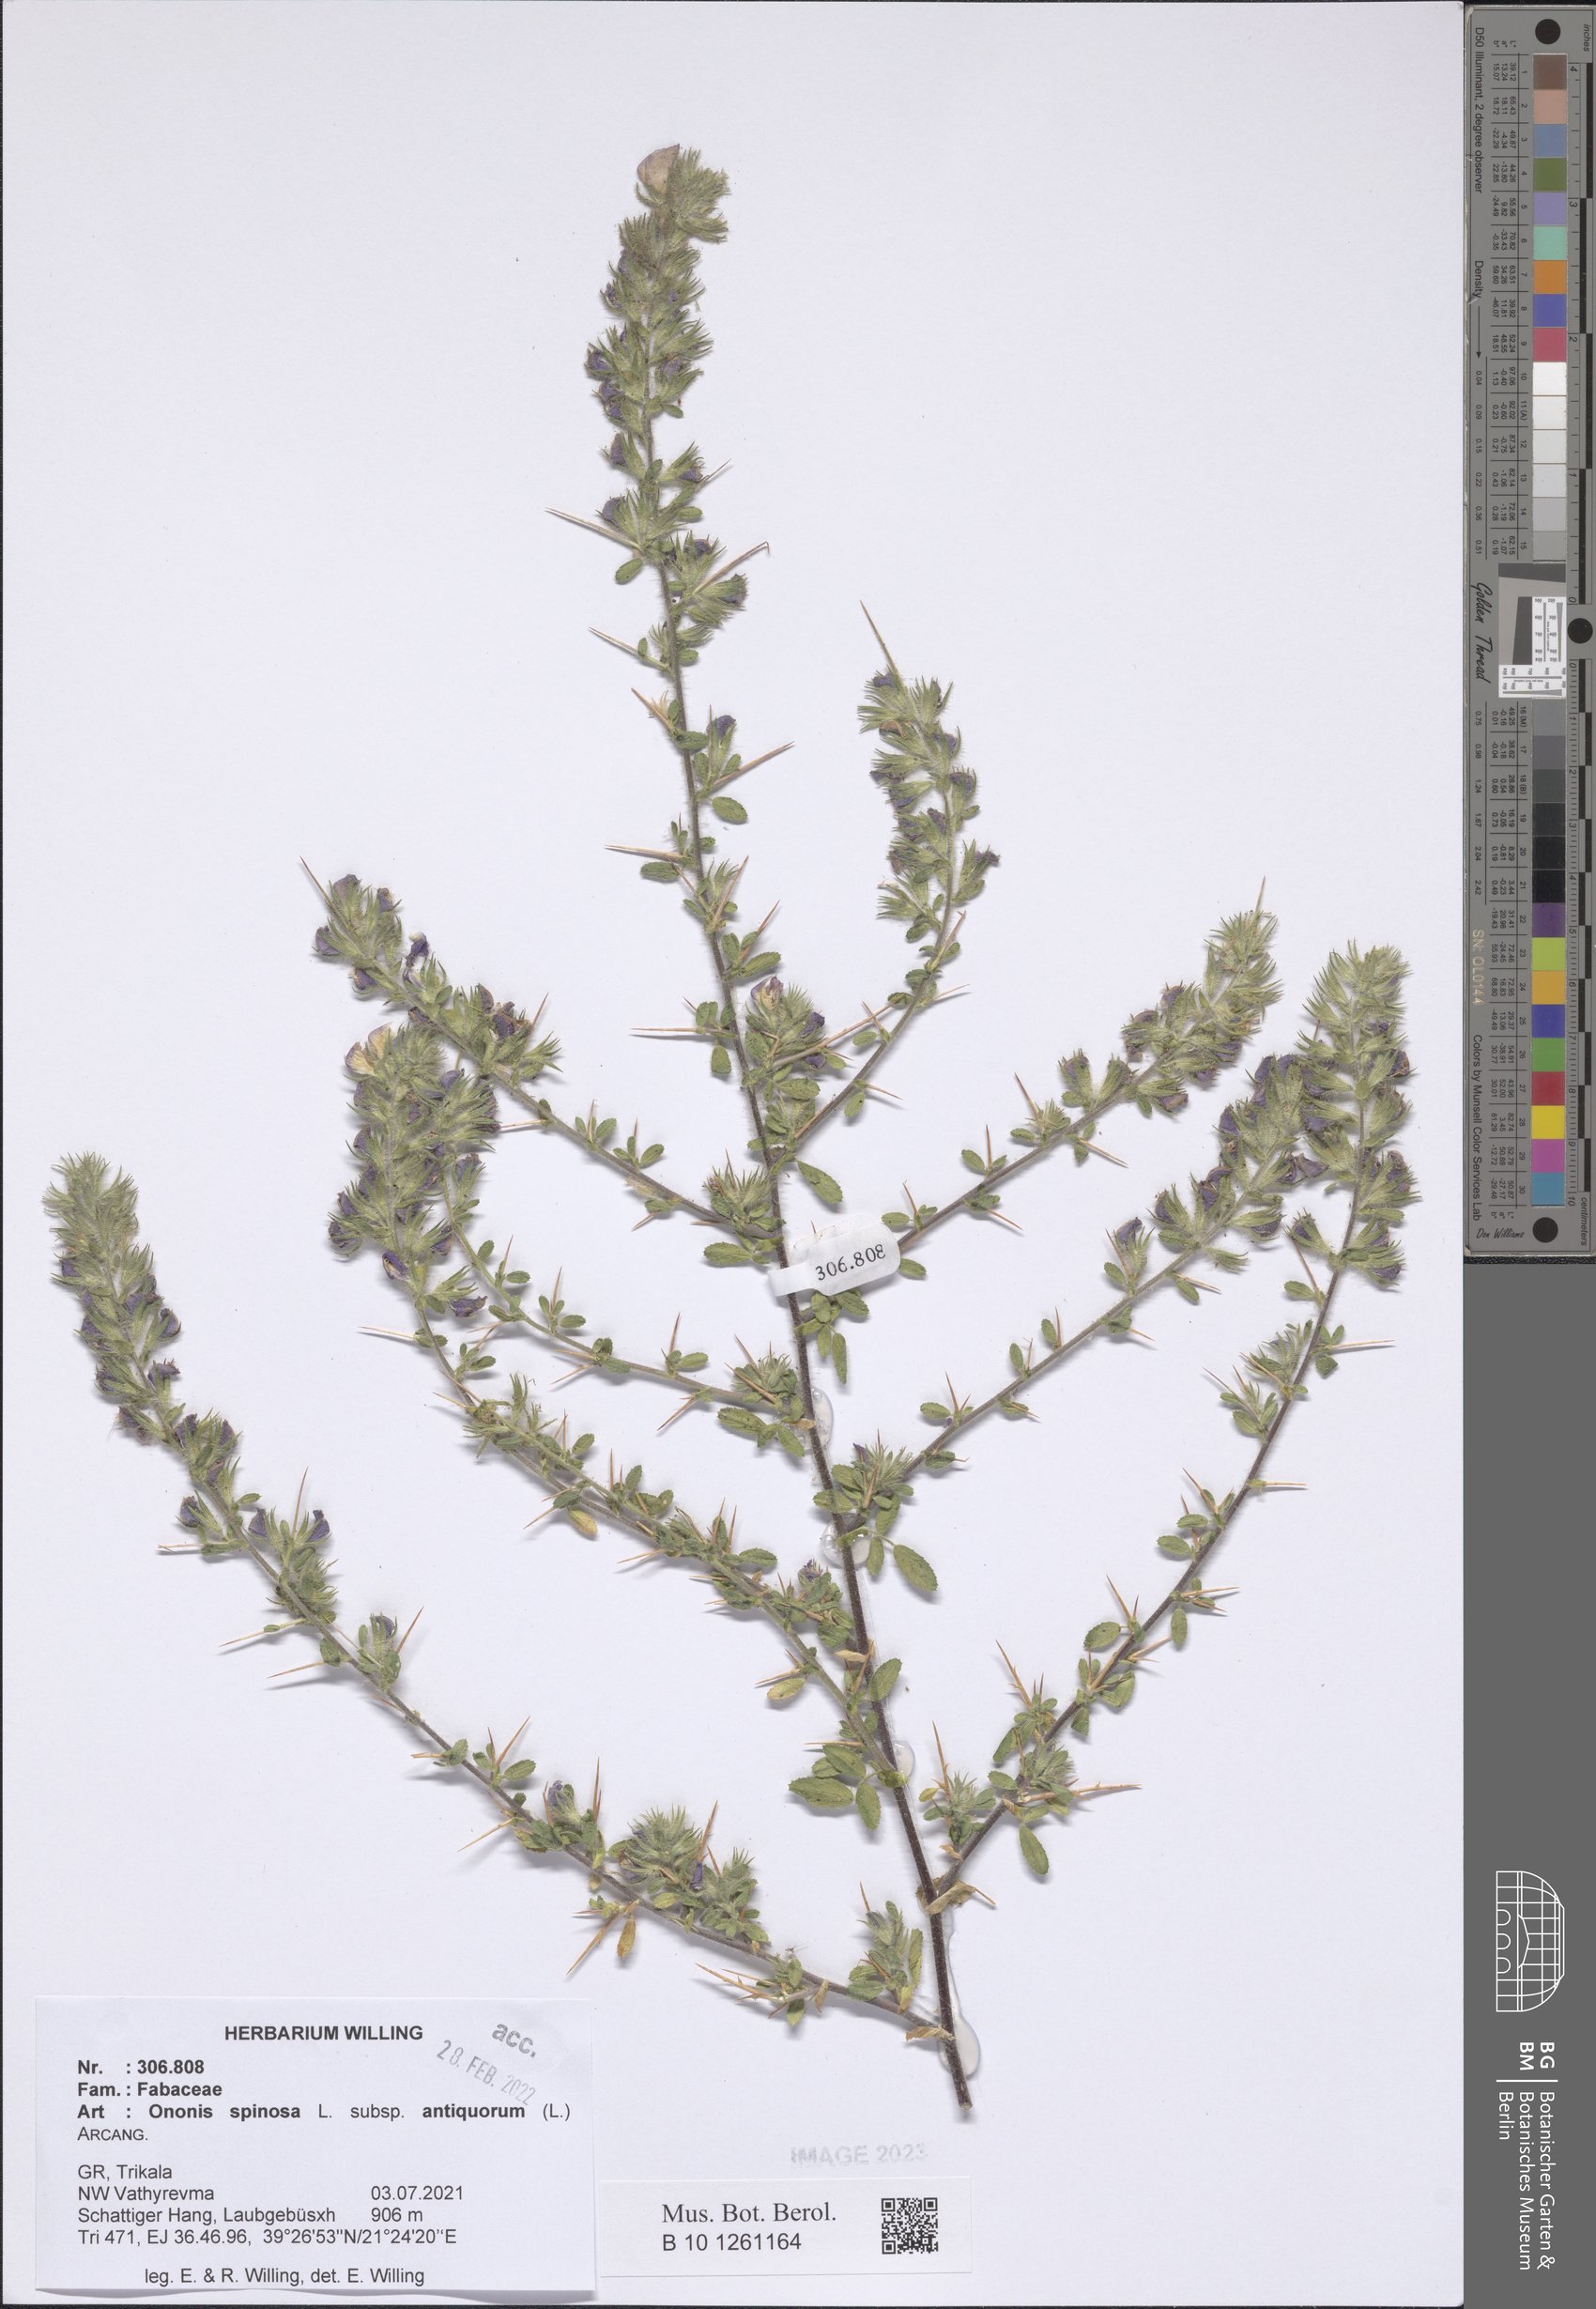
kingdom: Plantae
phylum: Tracheophyta
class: Magnoliopsida
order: Fabales
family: Fabaceae
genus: Ononis
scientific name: Ononis spinosa
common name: Spiny restharrow
